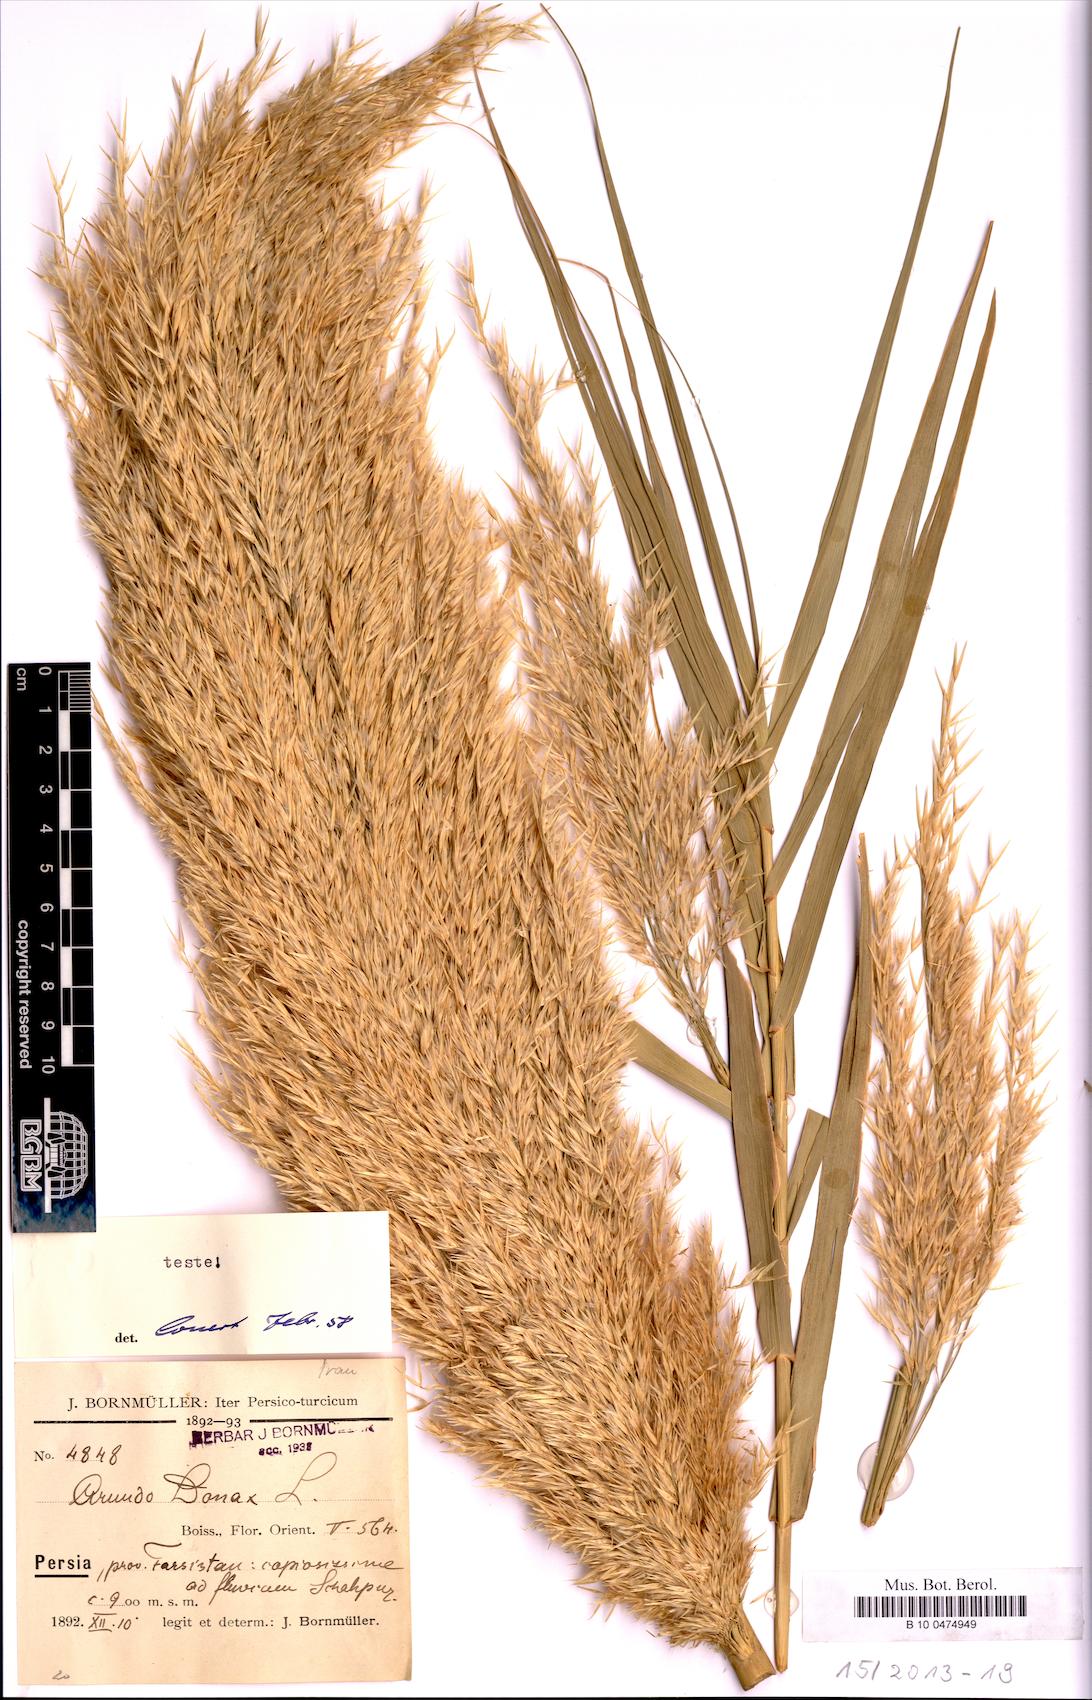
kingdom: Plantae
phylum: Tracheophyta
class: Liliopsida
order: Poales
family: Poaceae
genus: Arundo
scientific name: Arundo donax
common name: Giant reed
